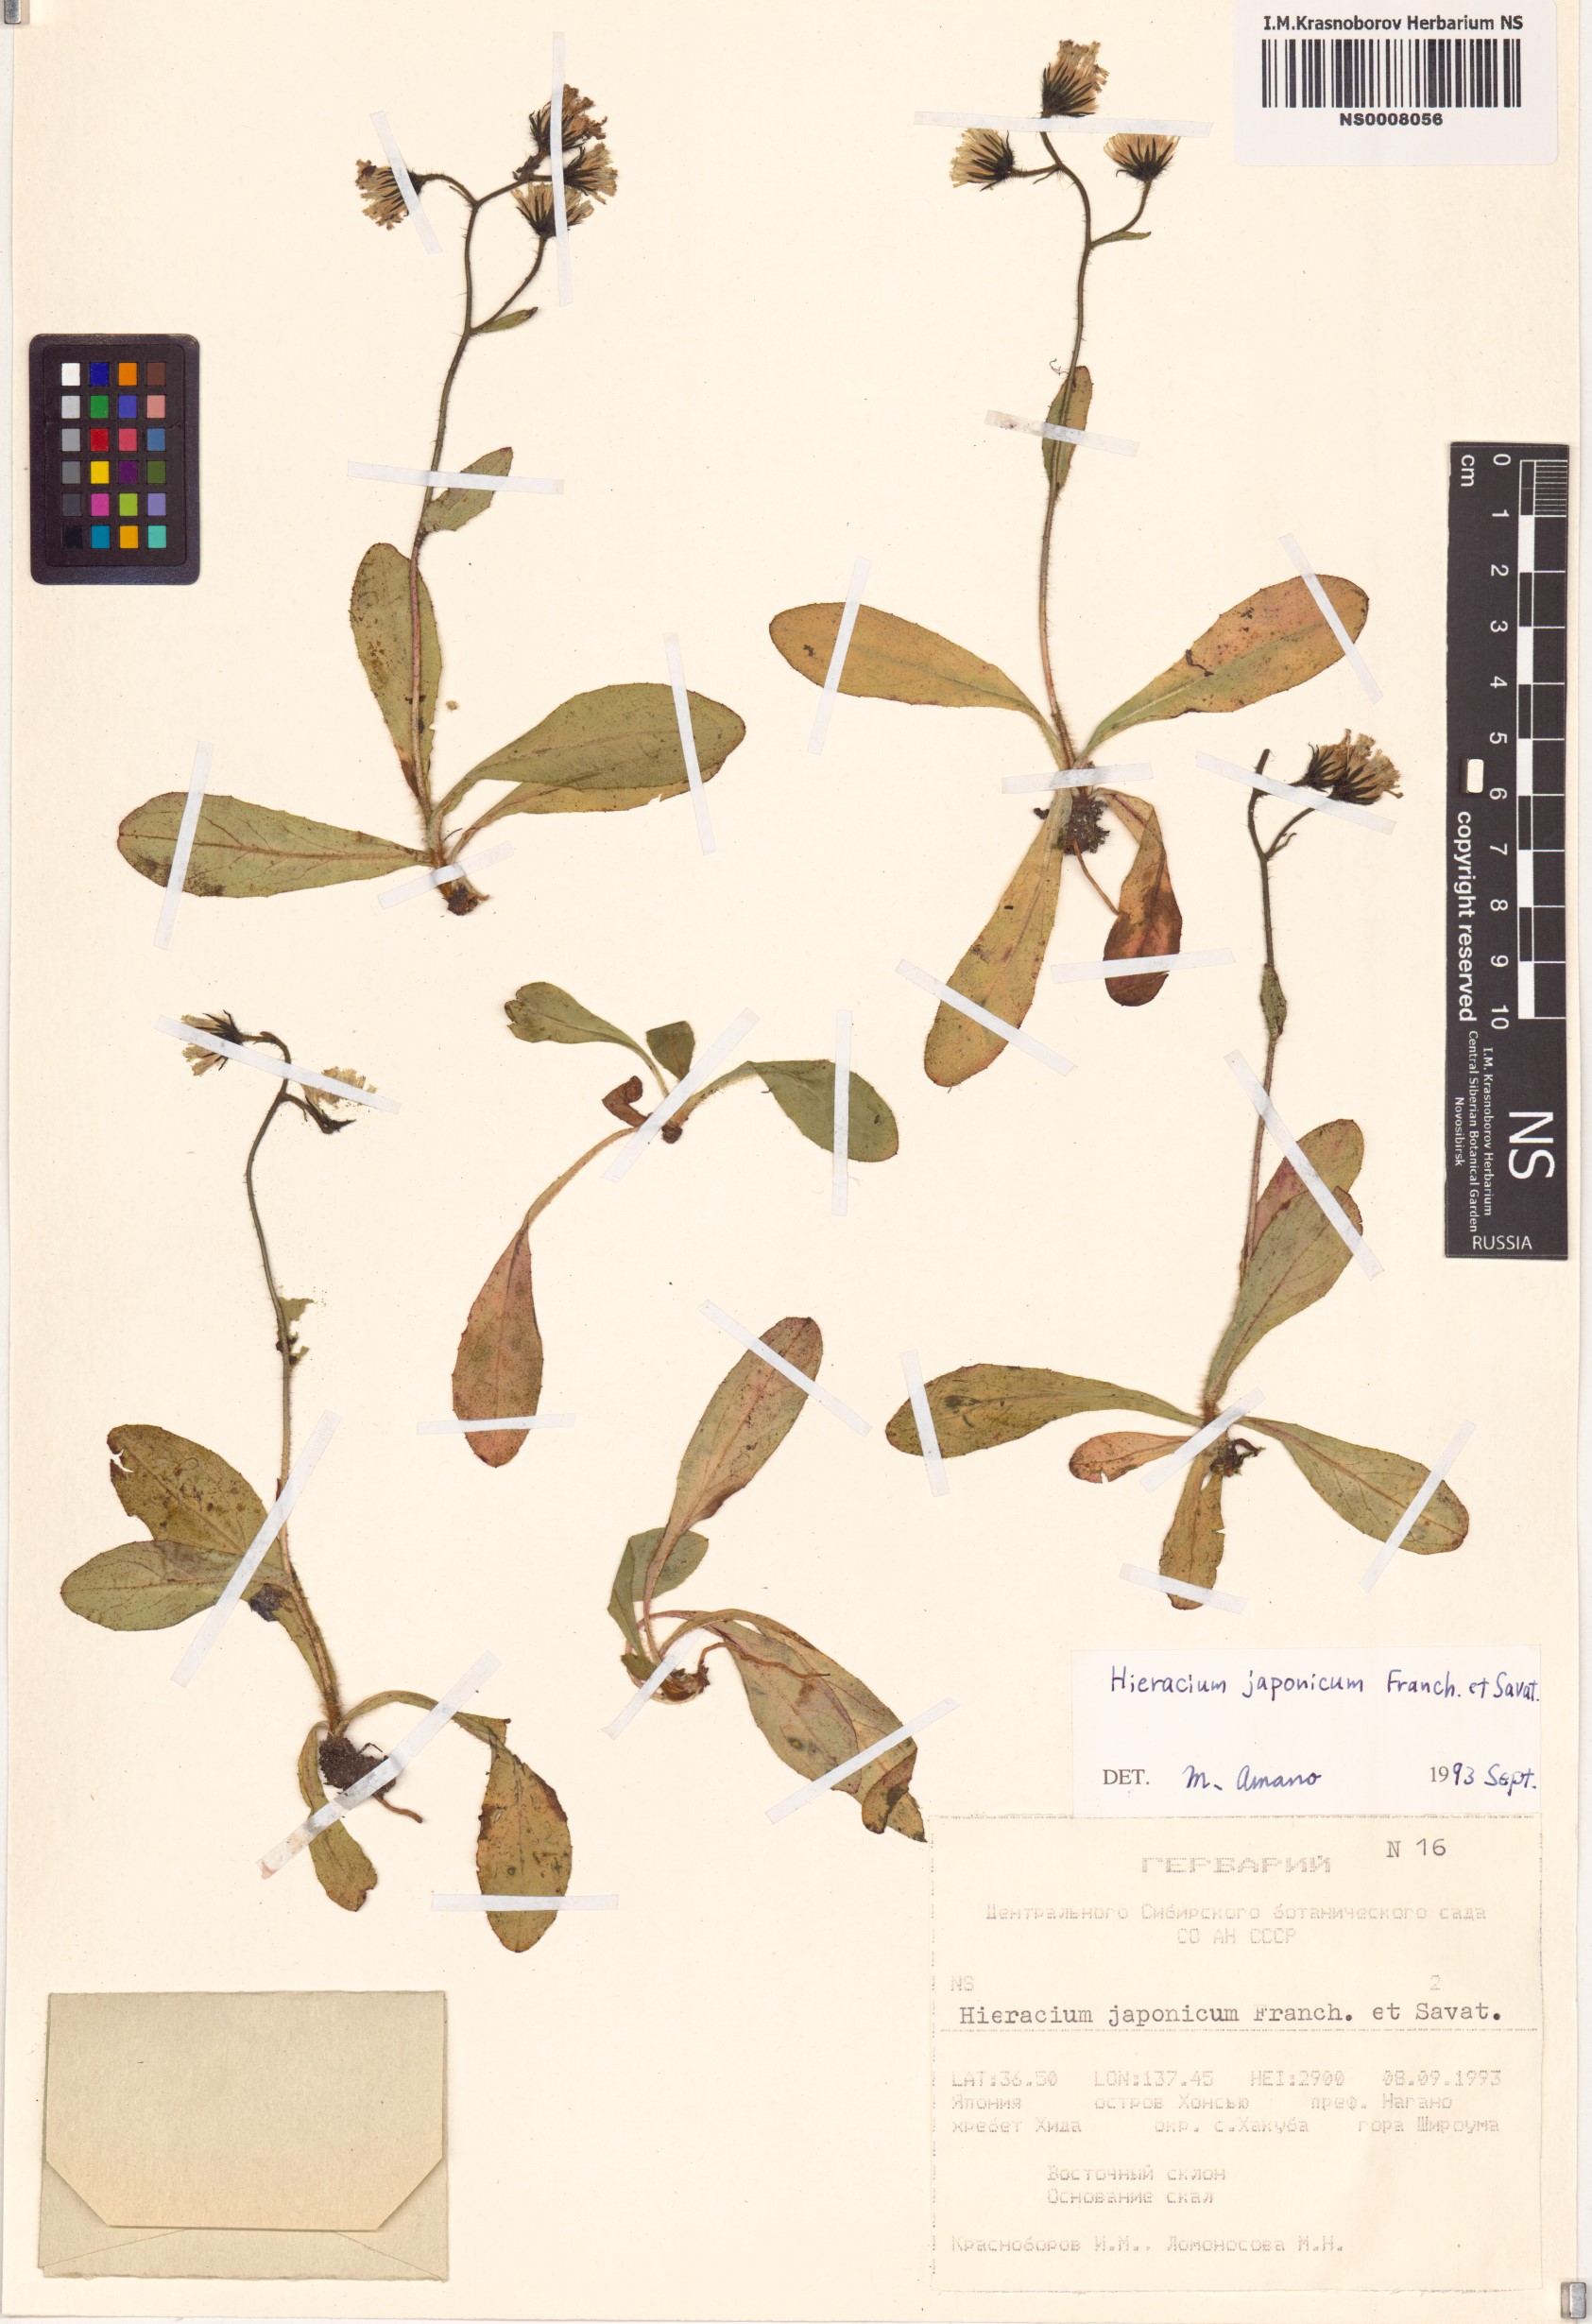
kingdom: Plantae
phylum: Tracheophyta
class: Magnoliopsida
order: Asterales
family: Asteraceae
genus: Hieracium
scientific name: Hieracium japonicum
